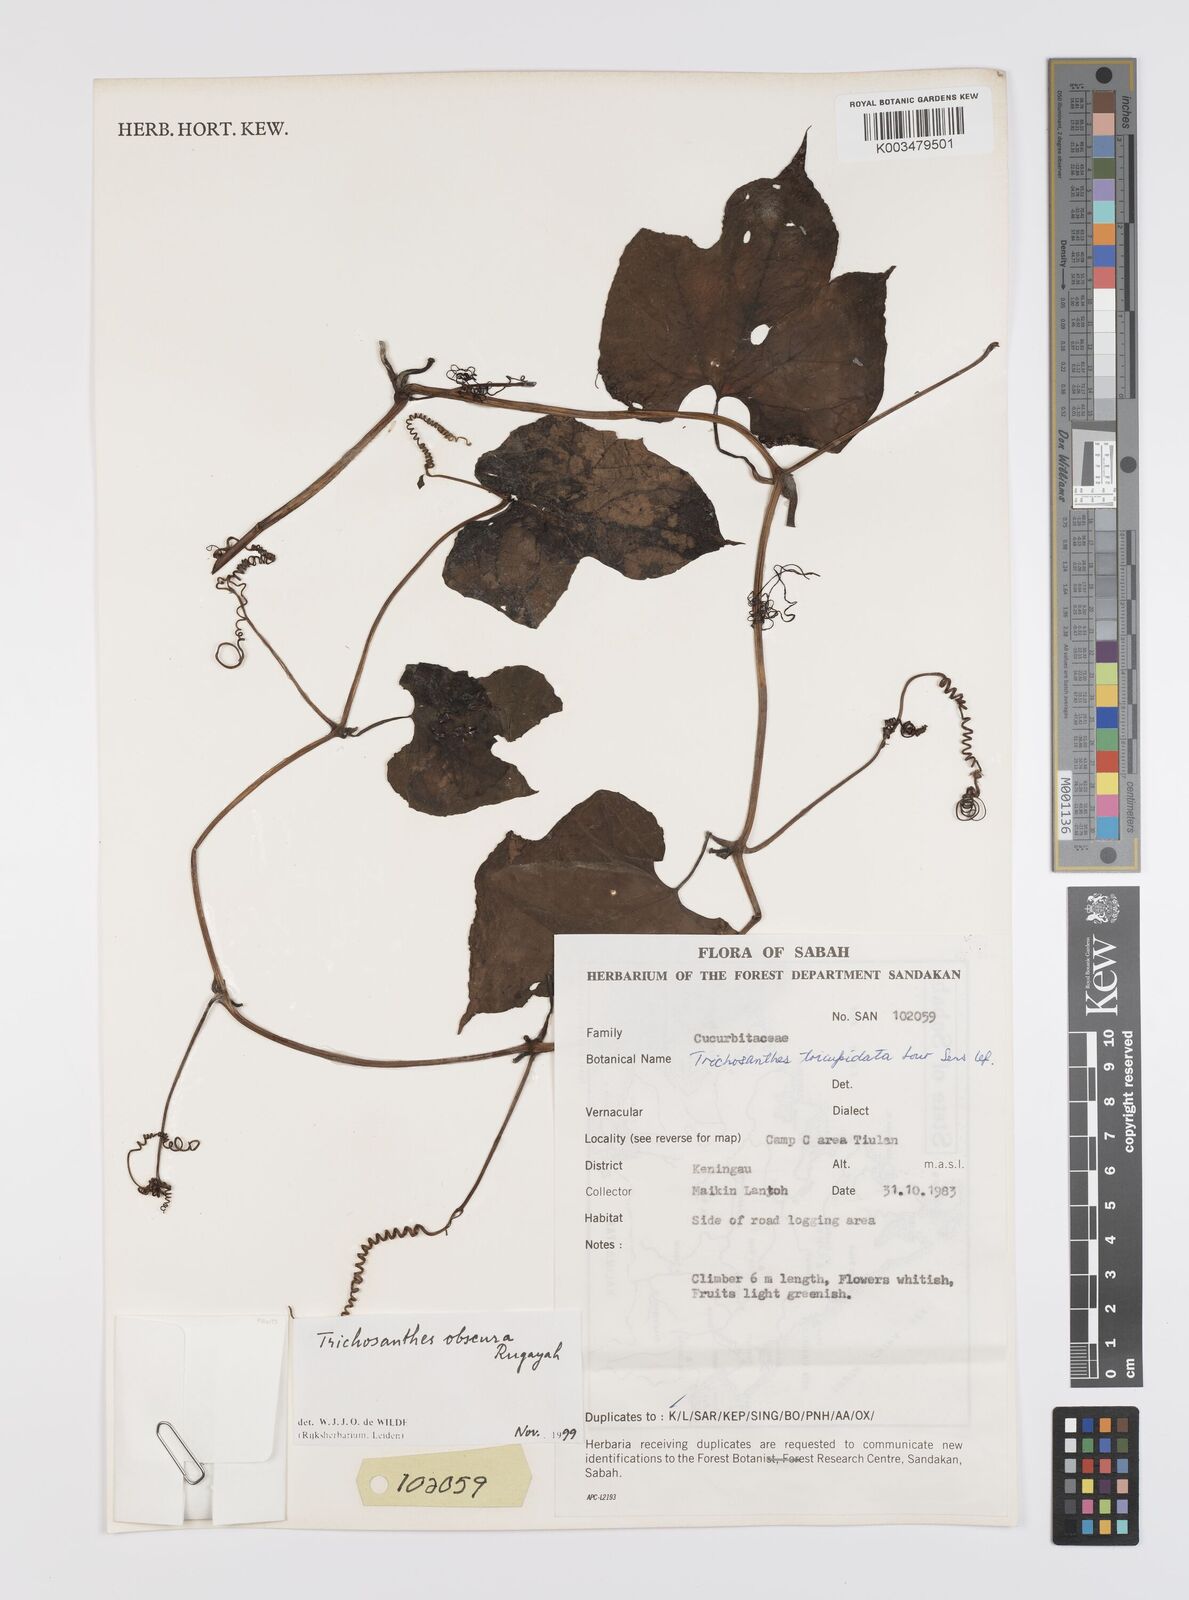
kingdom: Plantae
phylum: Tracheophyta
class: Magnoliopsida
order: Cucurbitales
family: Cucurbitaceae
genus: Trichosanthes
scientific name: Trichosanthes obscura
